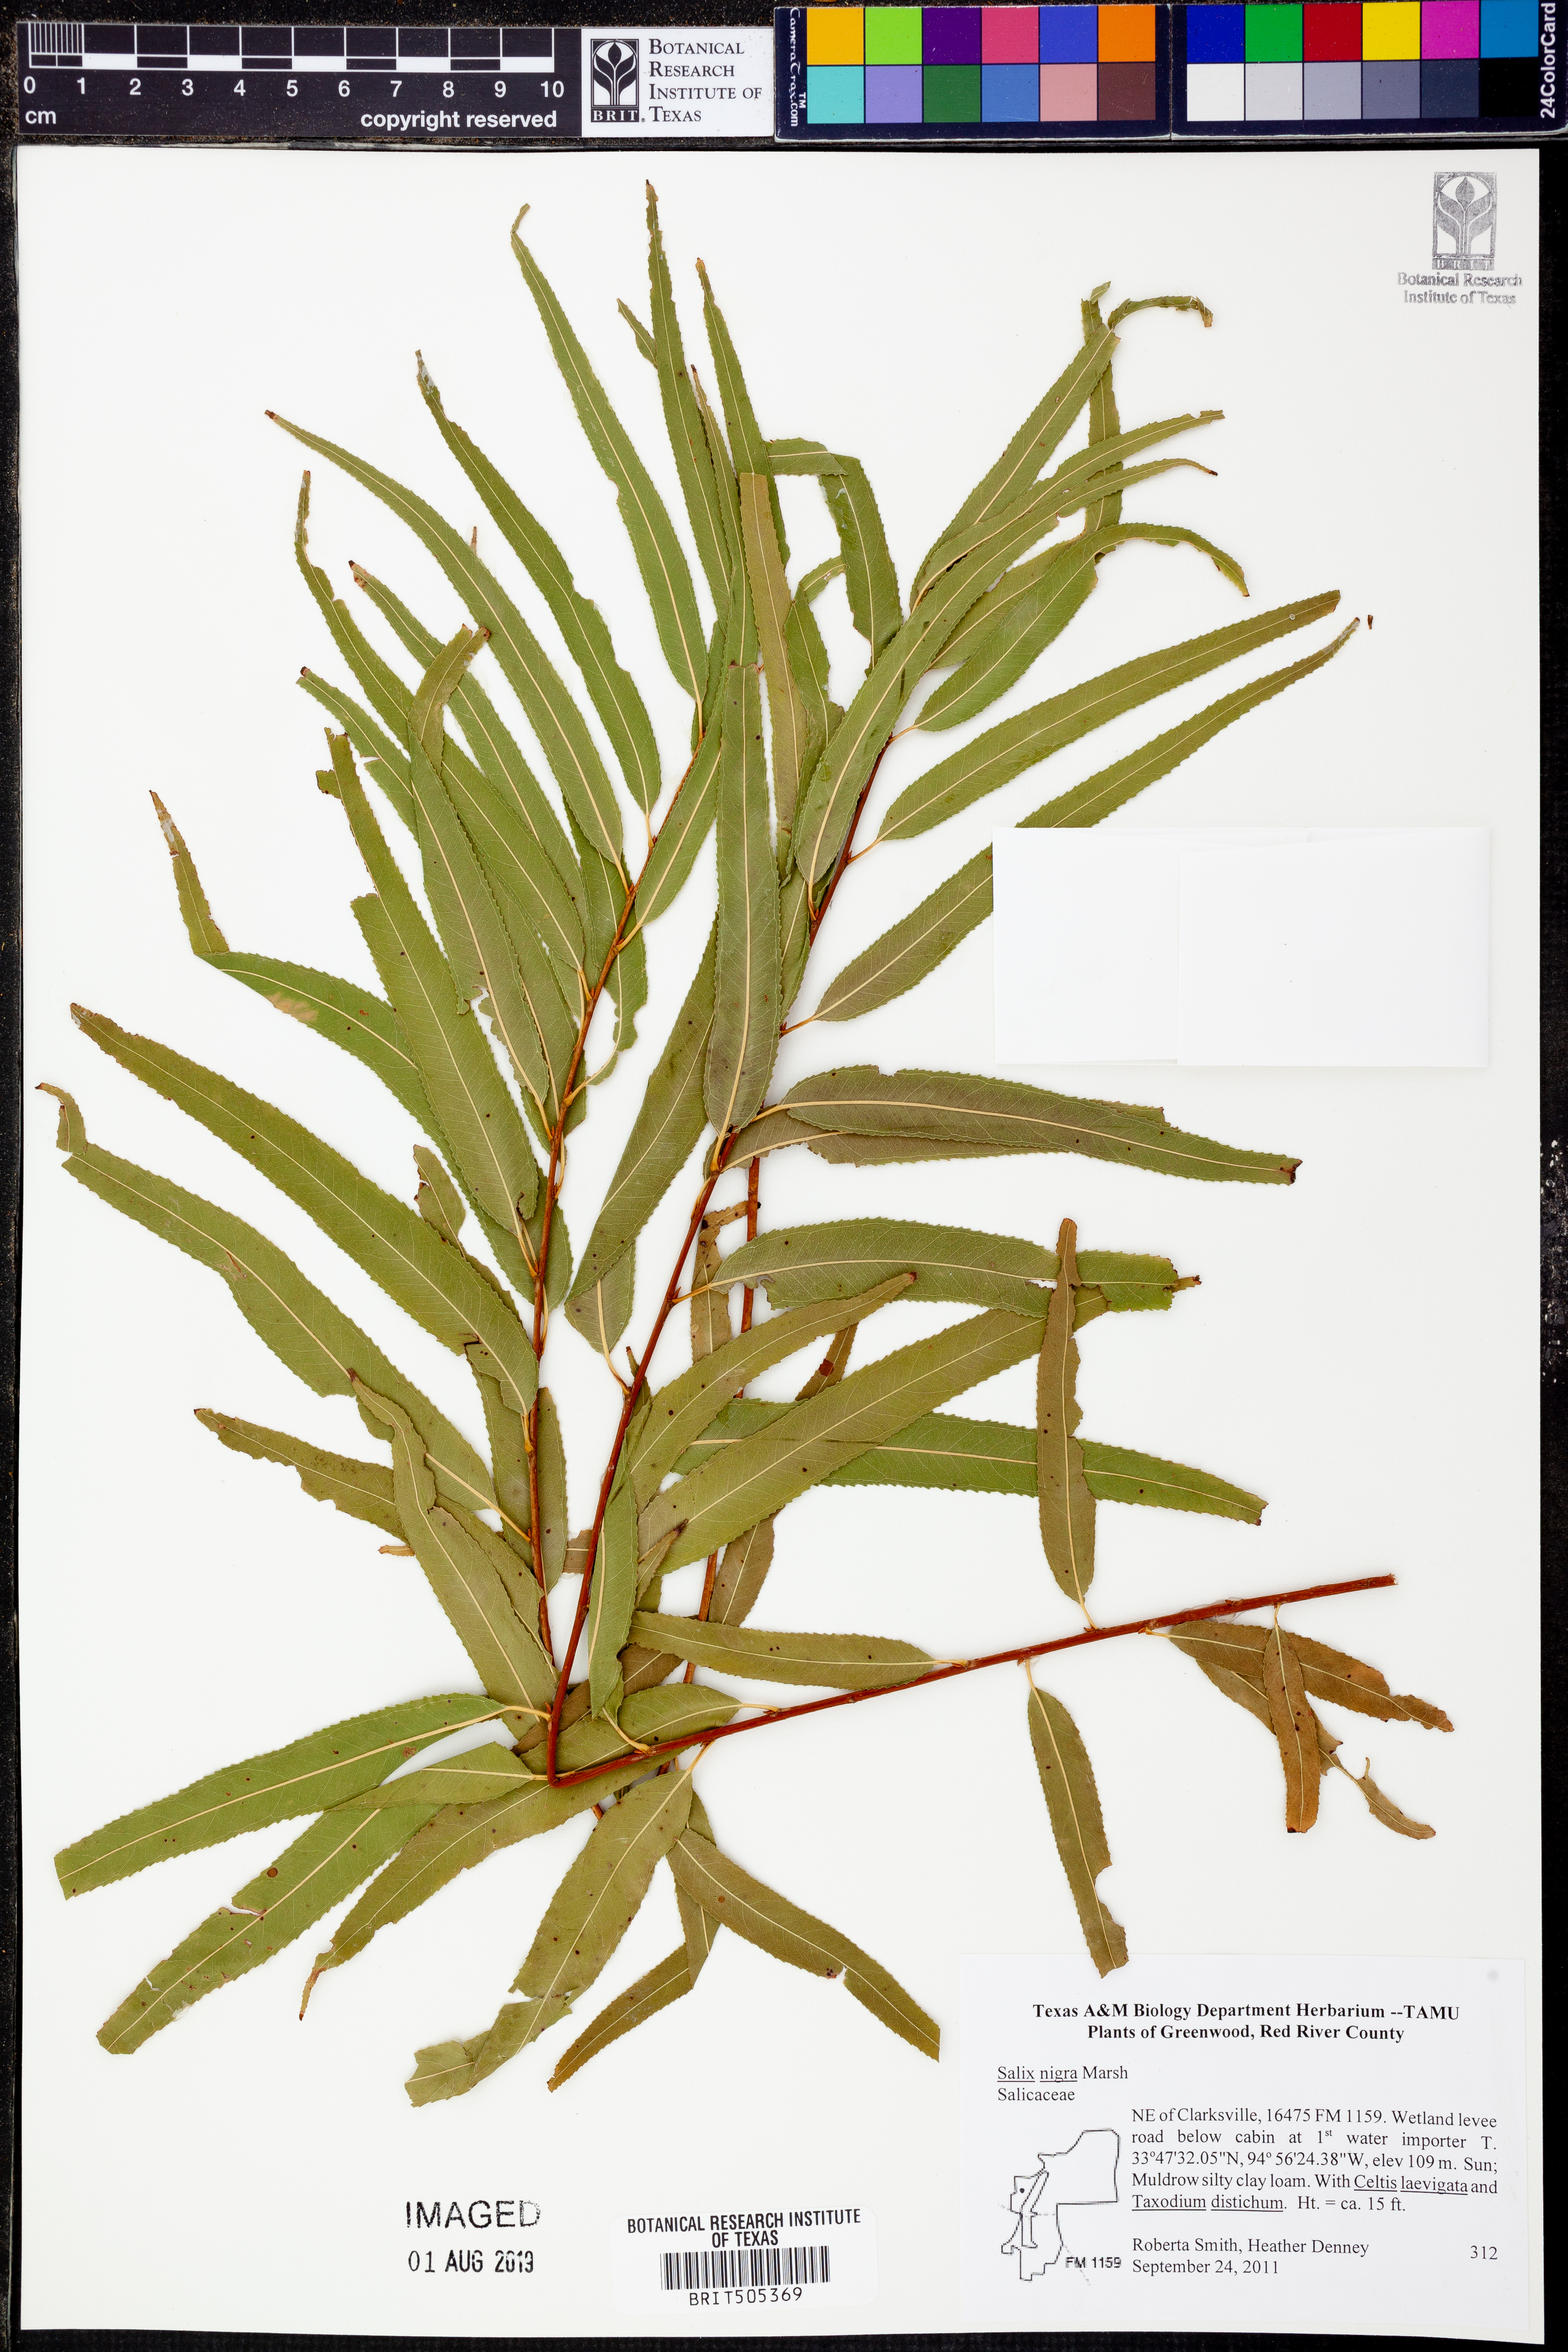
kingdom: Plantae
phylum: Tracheophyta
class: Magnoliopsida
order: Malpighiales
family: Salicaceae
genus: Salix
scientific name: Salix nigra
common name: Black willow
